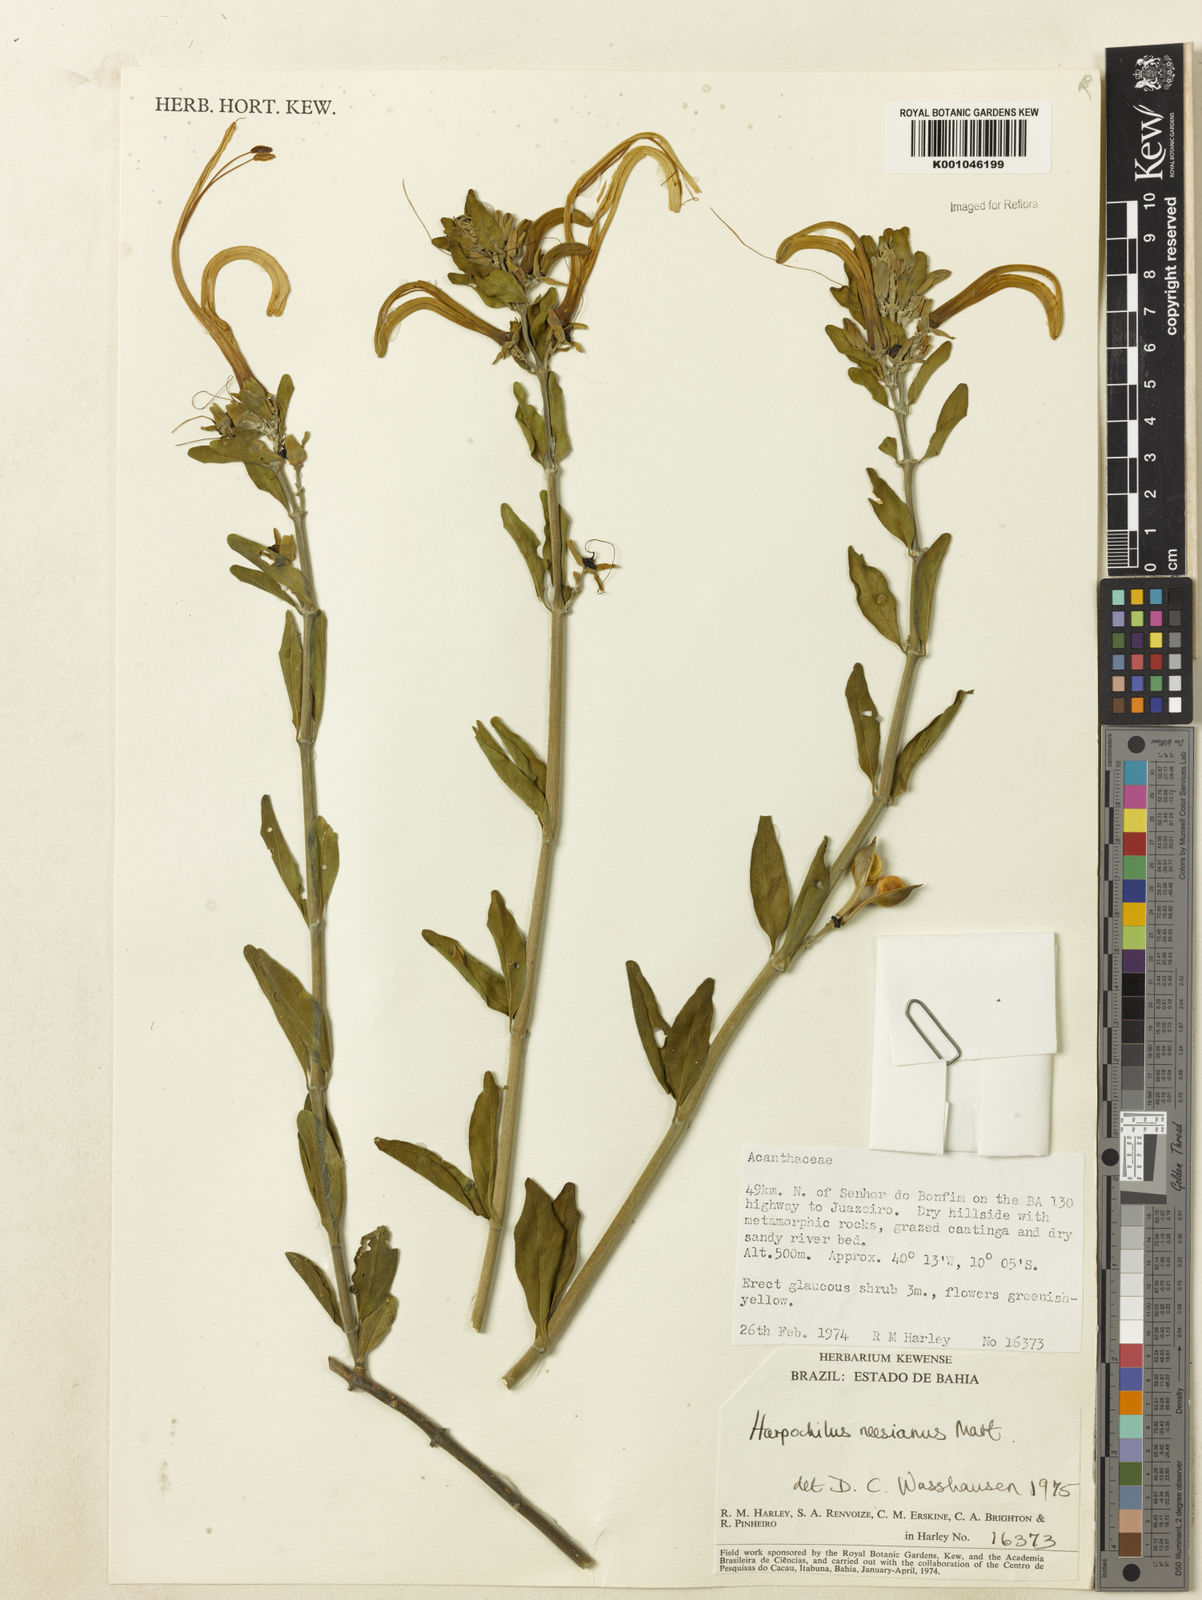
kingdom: Plantae
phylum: Tracheophyta
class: Magnoliopsida
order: Lamiales
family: Acanthaceae
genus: Harpochilus
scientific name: Harpochilus neesianus
